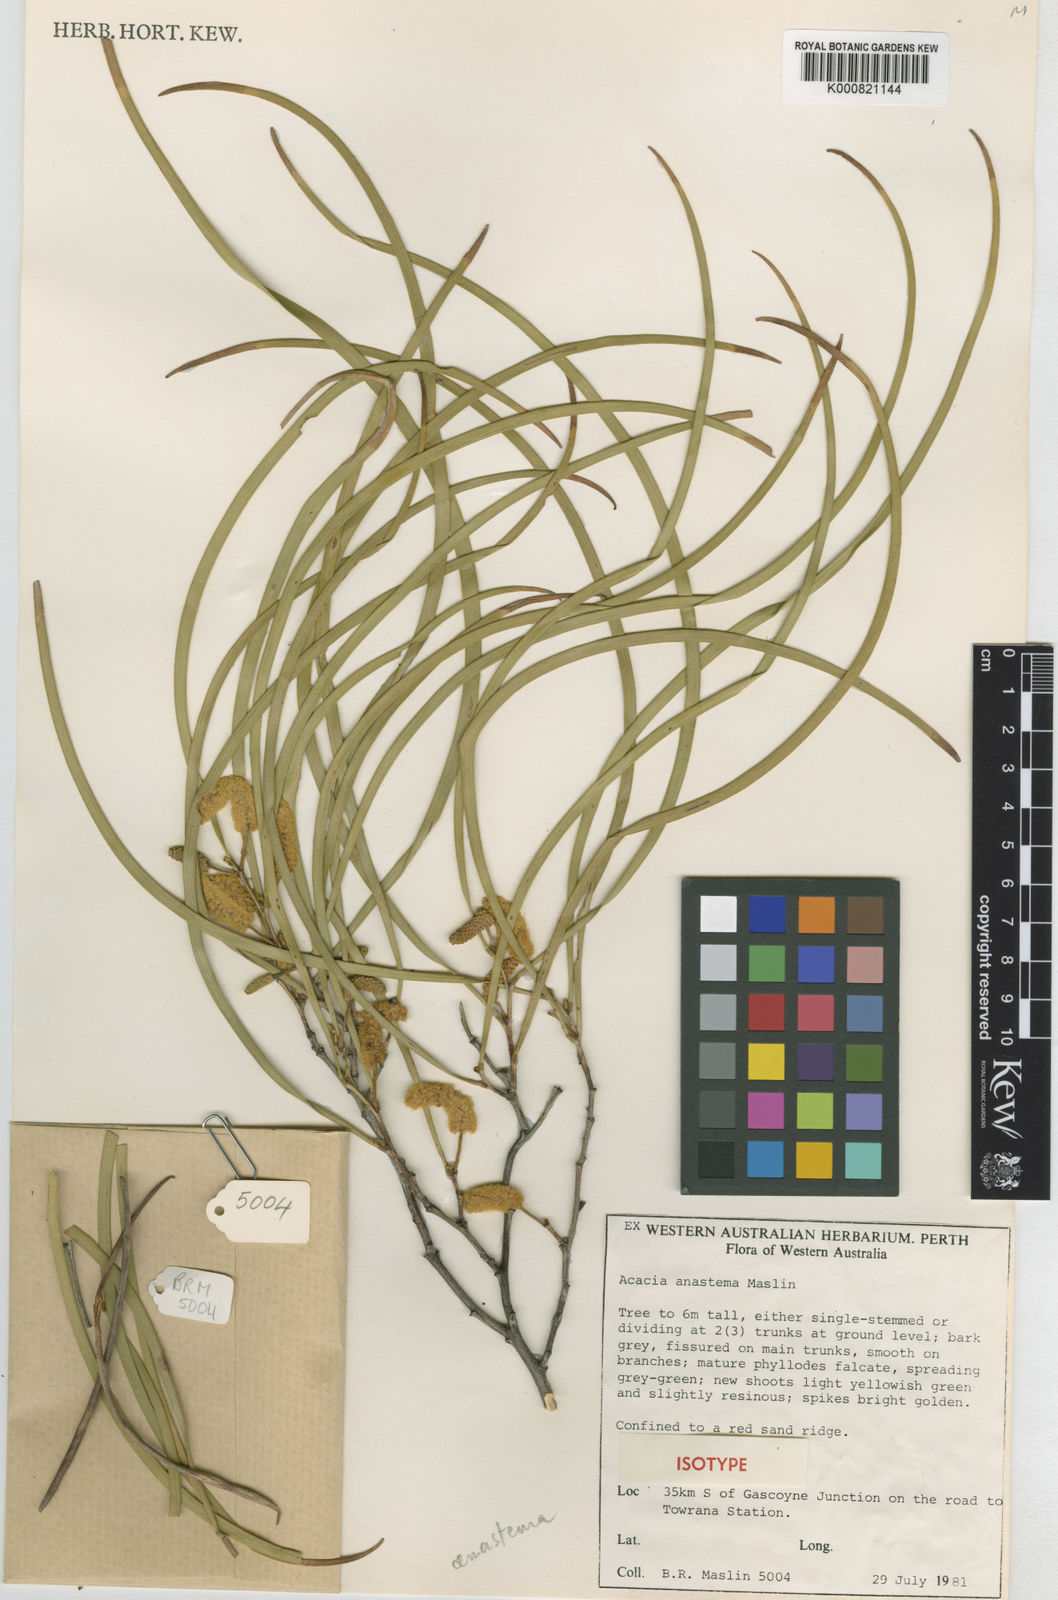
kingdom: Plantae
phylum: Tracheophyta
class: Magnoliopsida
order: Fabales
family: Fabaceae
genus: Acacia
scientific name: Acacia anastema
